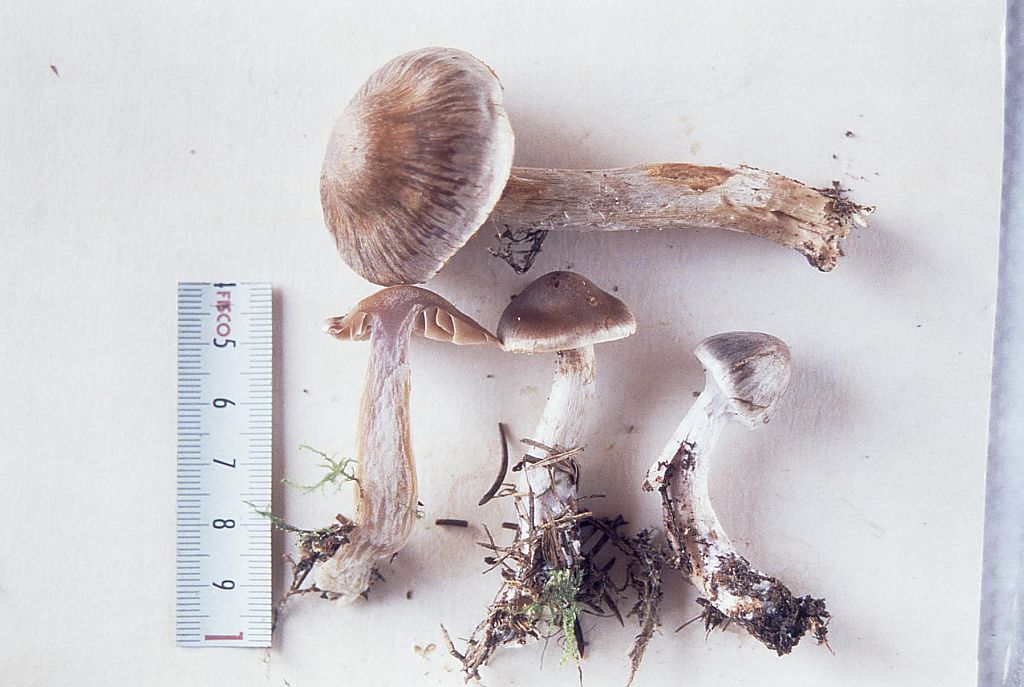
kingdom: Fungi
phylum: Basidiomycota
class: Agaricomycetes
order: Agaricales
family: Cortinariaceae
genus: Cortinarius
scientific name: Cortinarius kauffmanianus
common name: plantage-slørhat
